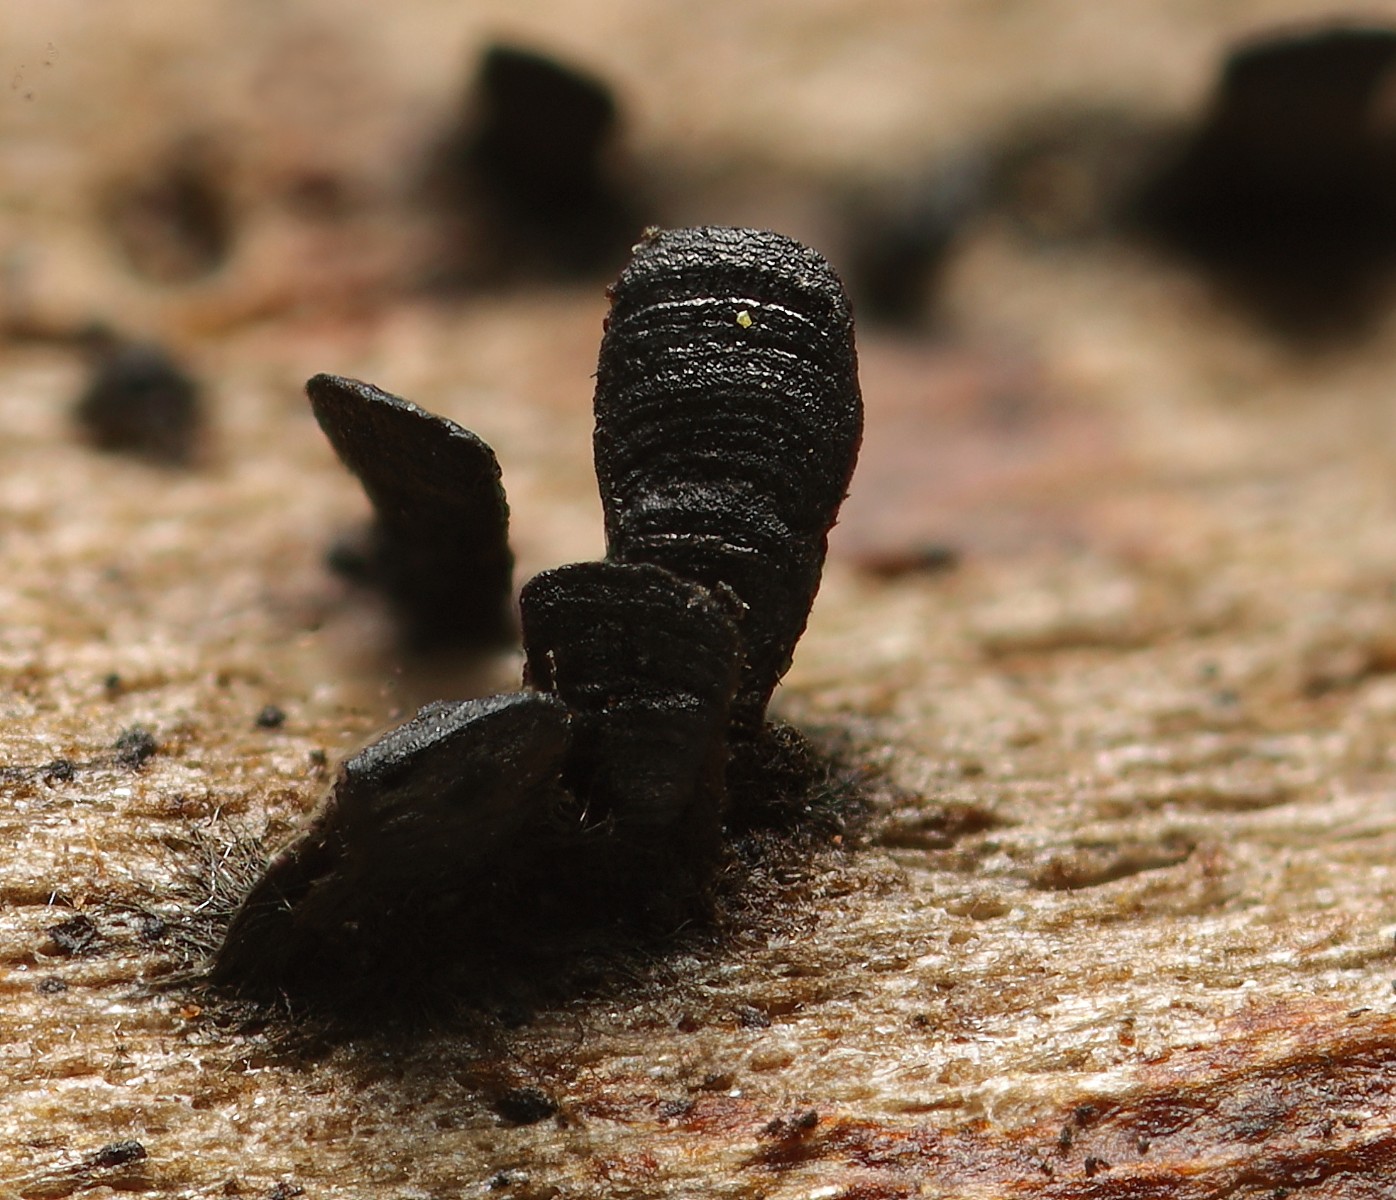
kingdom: Fungi
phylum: Ascomycota
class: Eurotiomycetes
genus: Glyphium
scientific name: Glyphium elatum
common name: kuløkse
